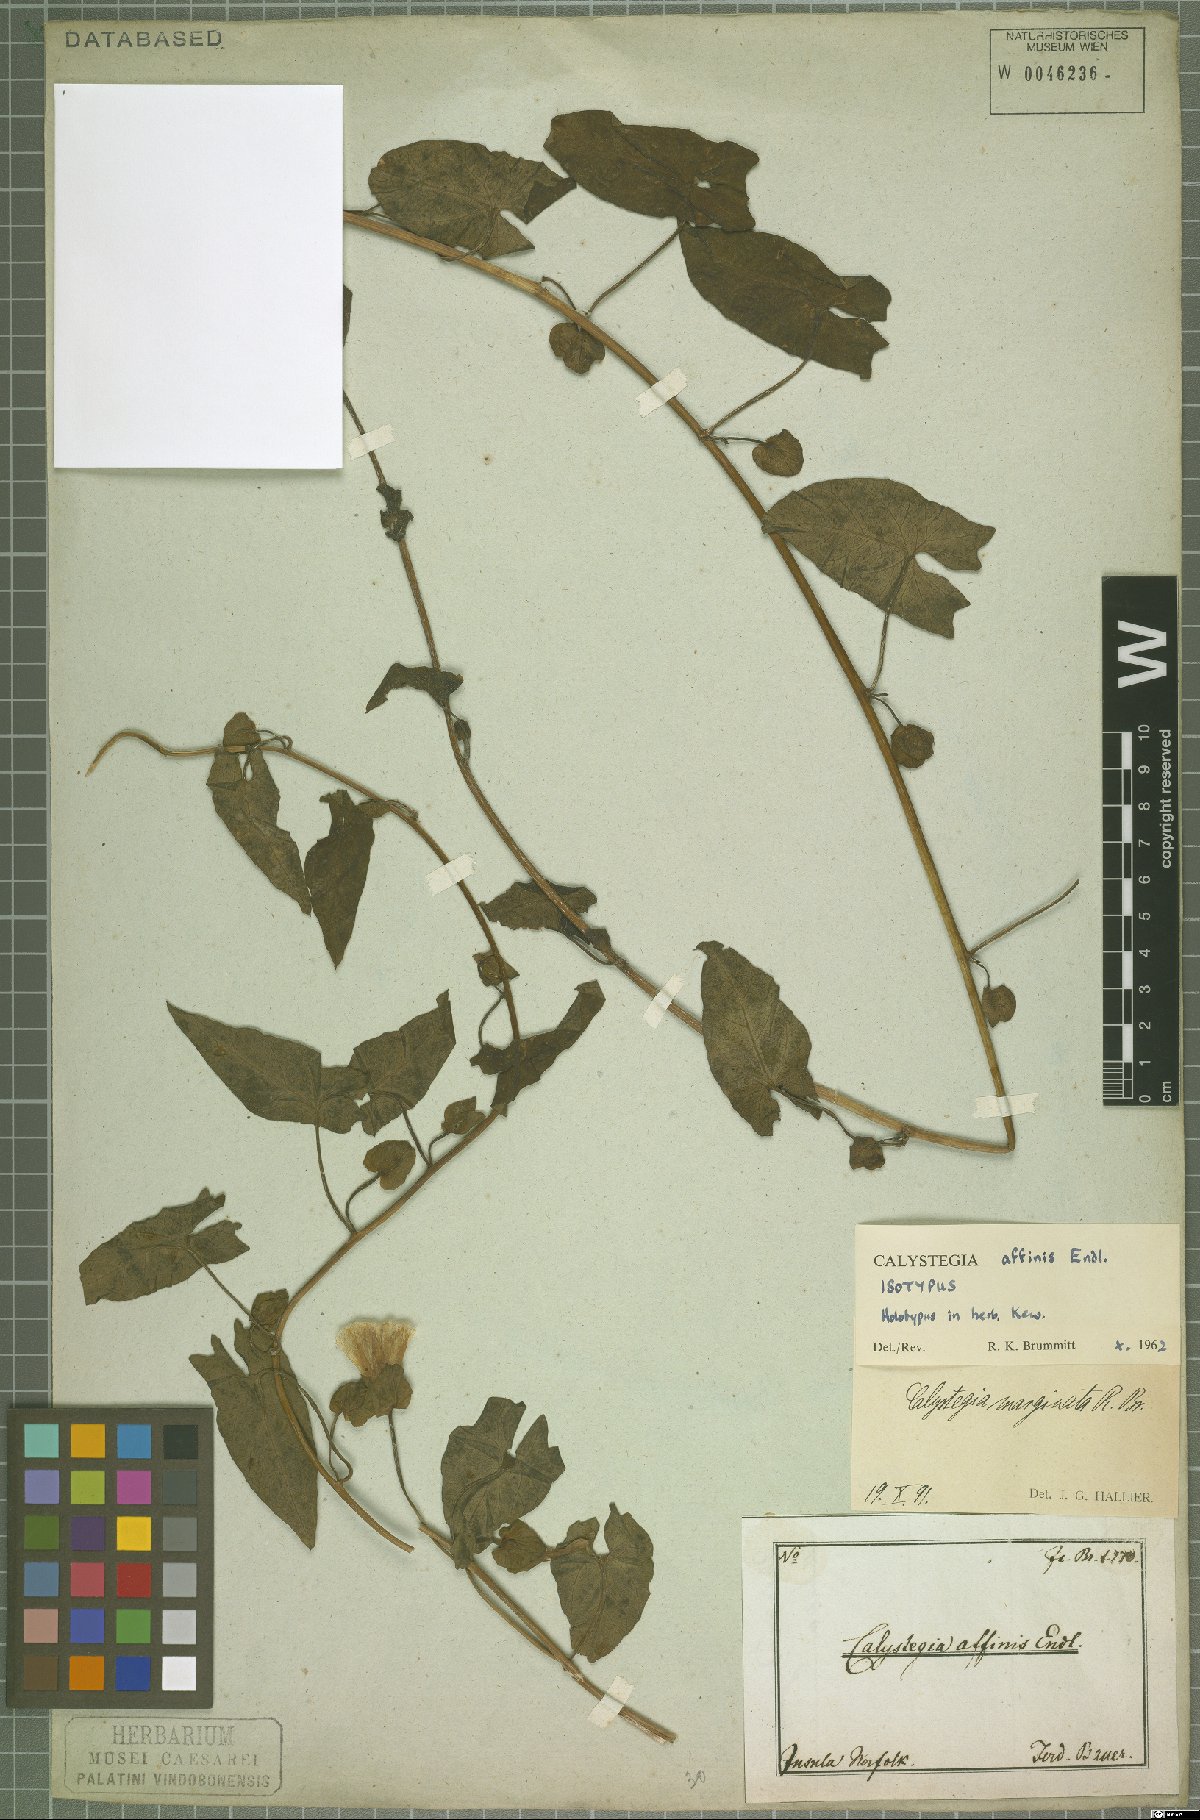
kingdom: Plantae
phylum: Tracheophyta
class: Magnoliopsida
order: Solanales
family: Convolvulaceae
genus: Calystegia
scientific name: Calystegia affinis
